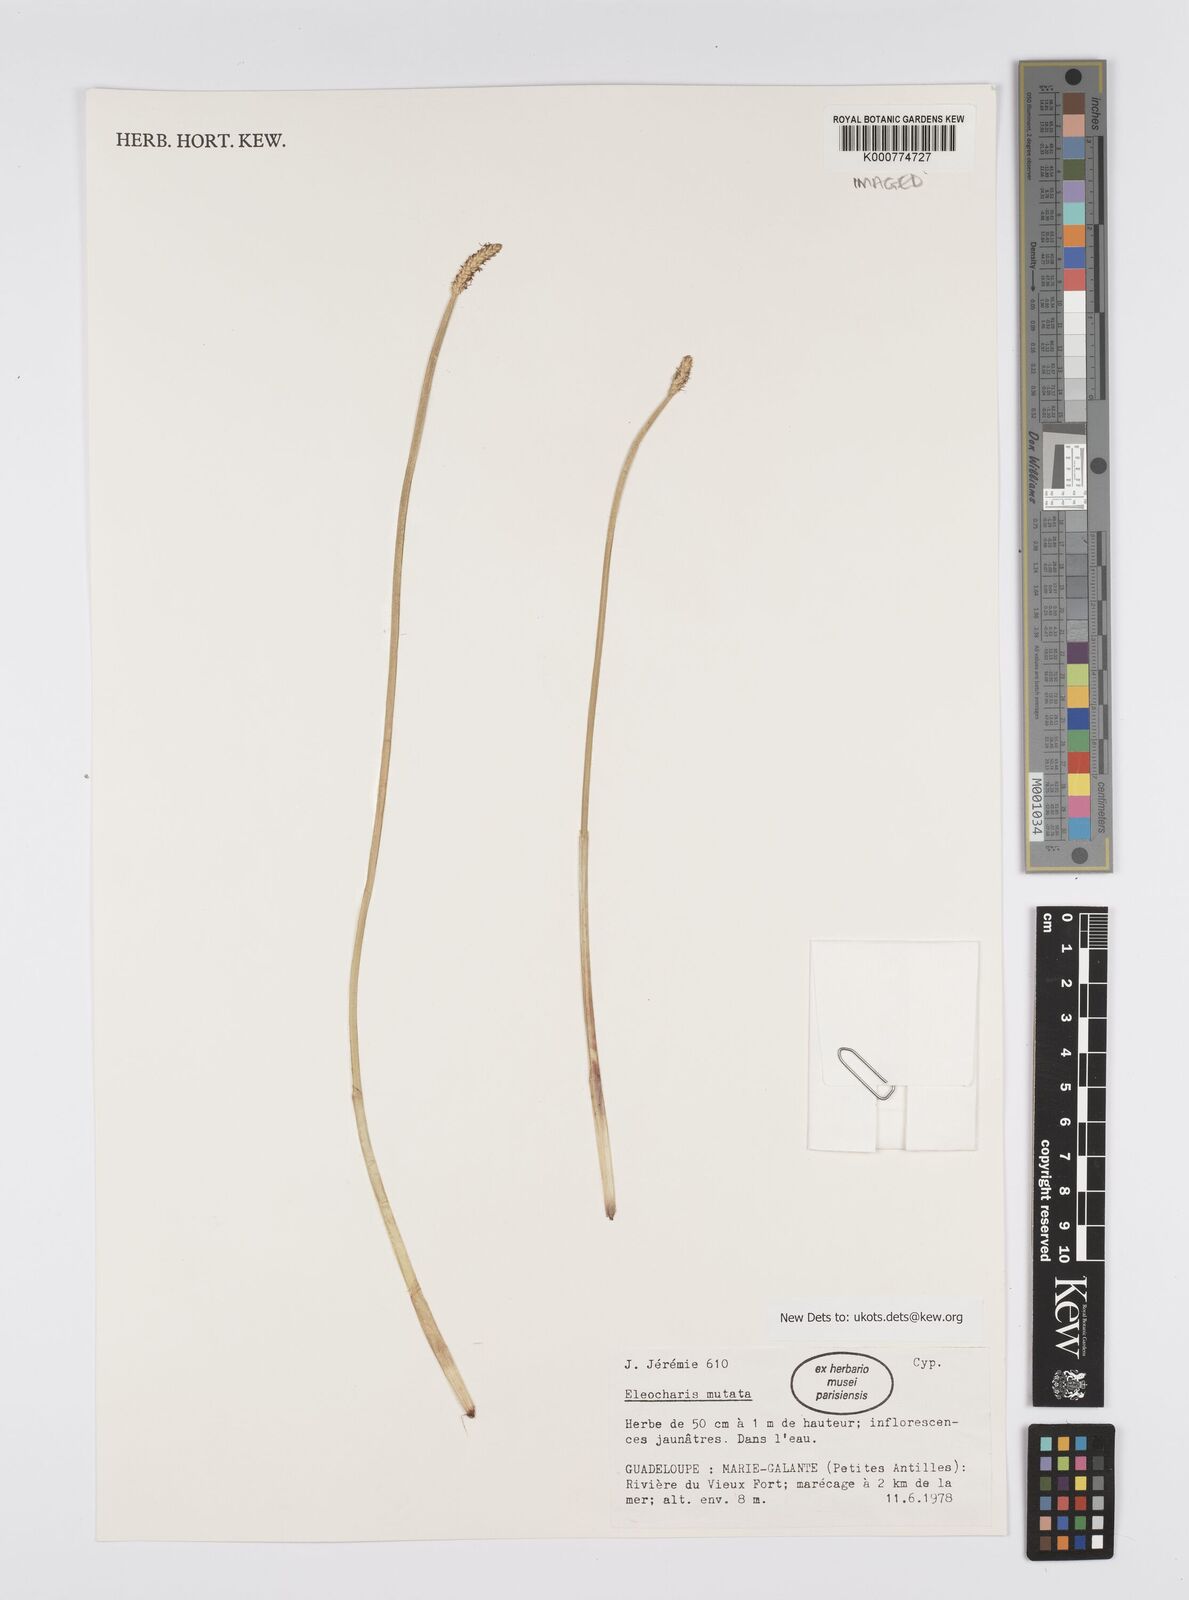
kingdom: Plantae
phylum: Tracheophyta
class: Liliopsida
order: Poales
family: Cyperaceae
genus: Eleocharis
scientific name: Eleocharis mutata
